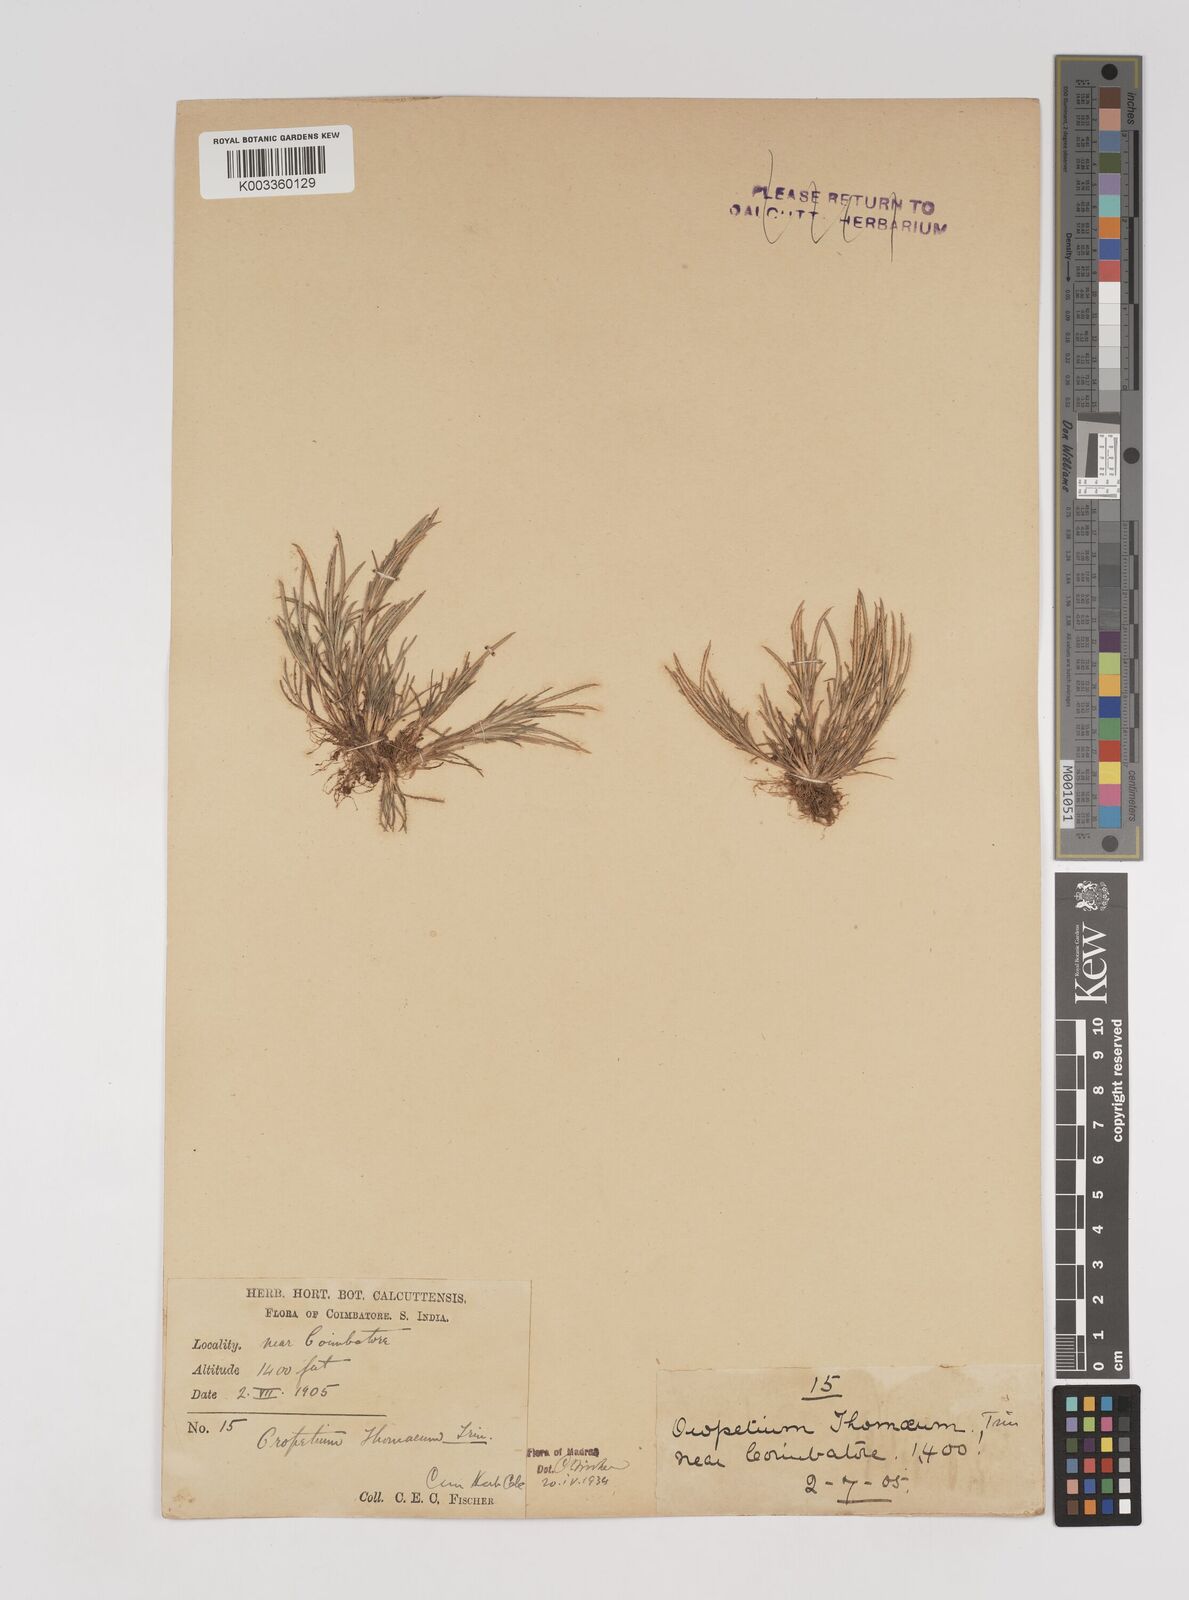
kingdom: Plantae
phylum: Tracheophyta
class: Liliopsida
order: Poales
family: Poaceae
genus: Oropetium
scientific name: Oropetium thomaeum
